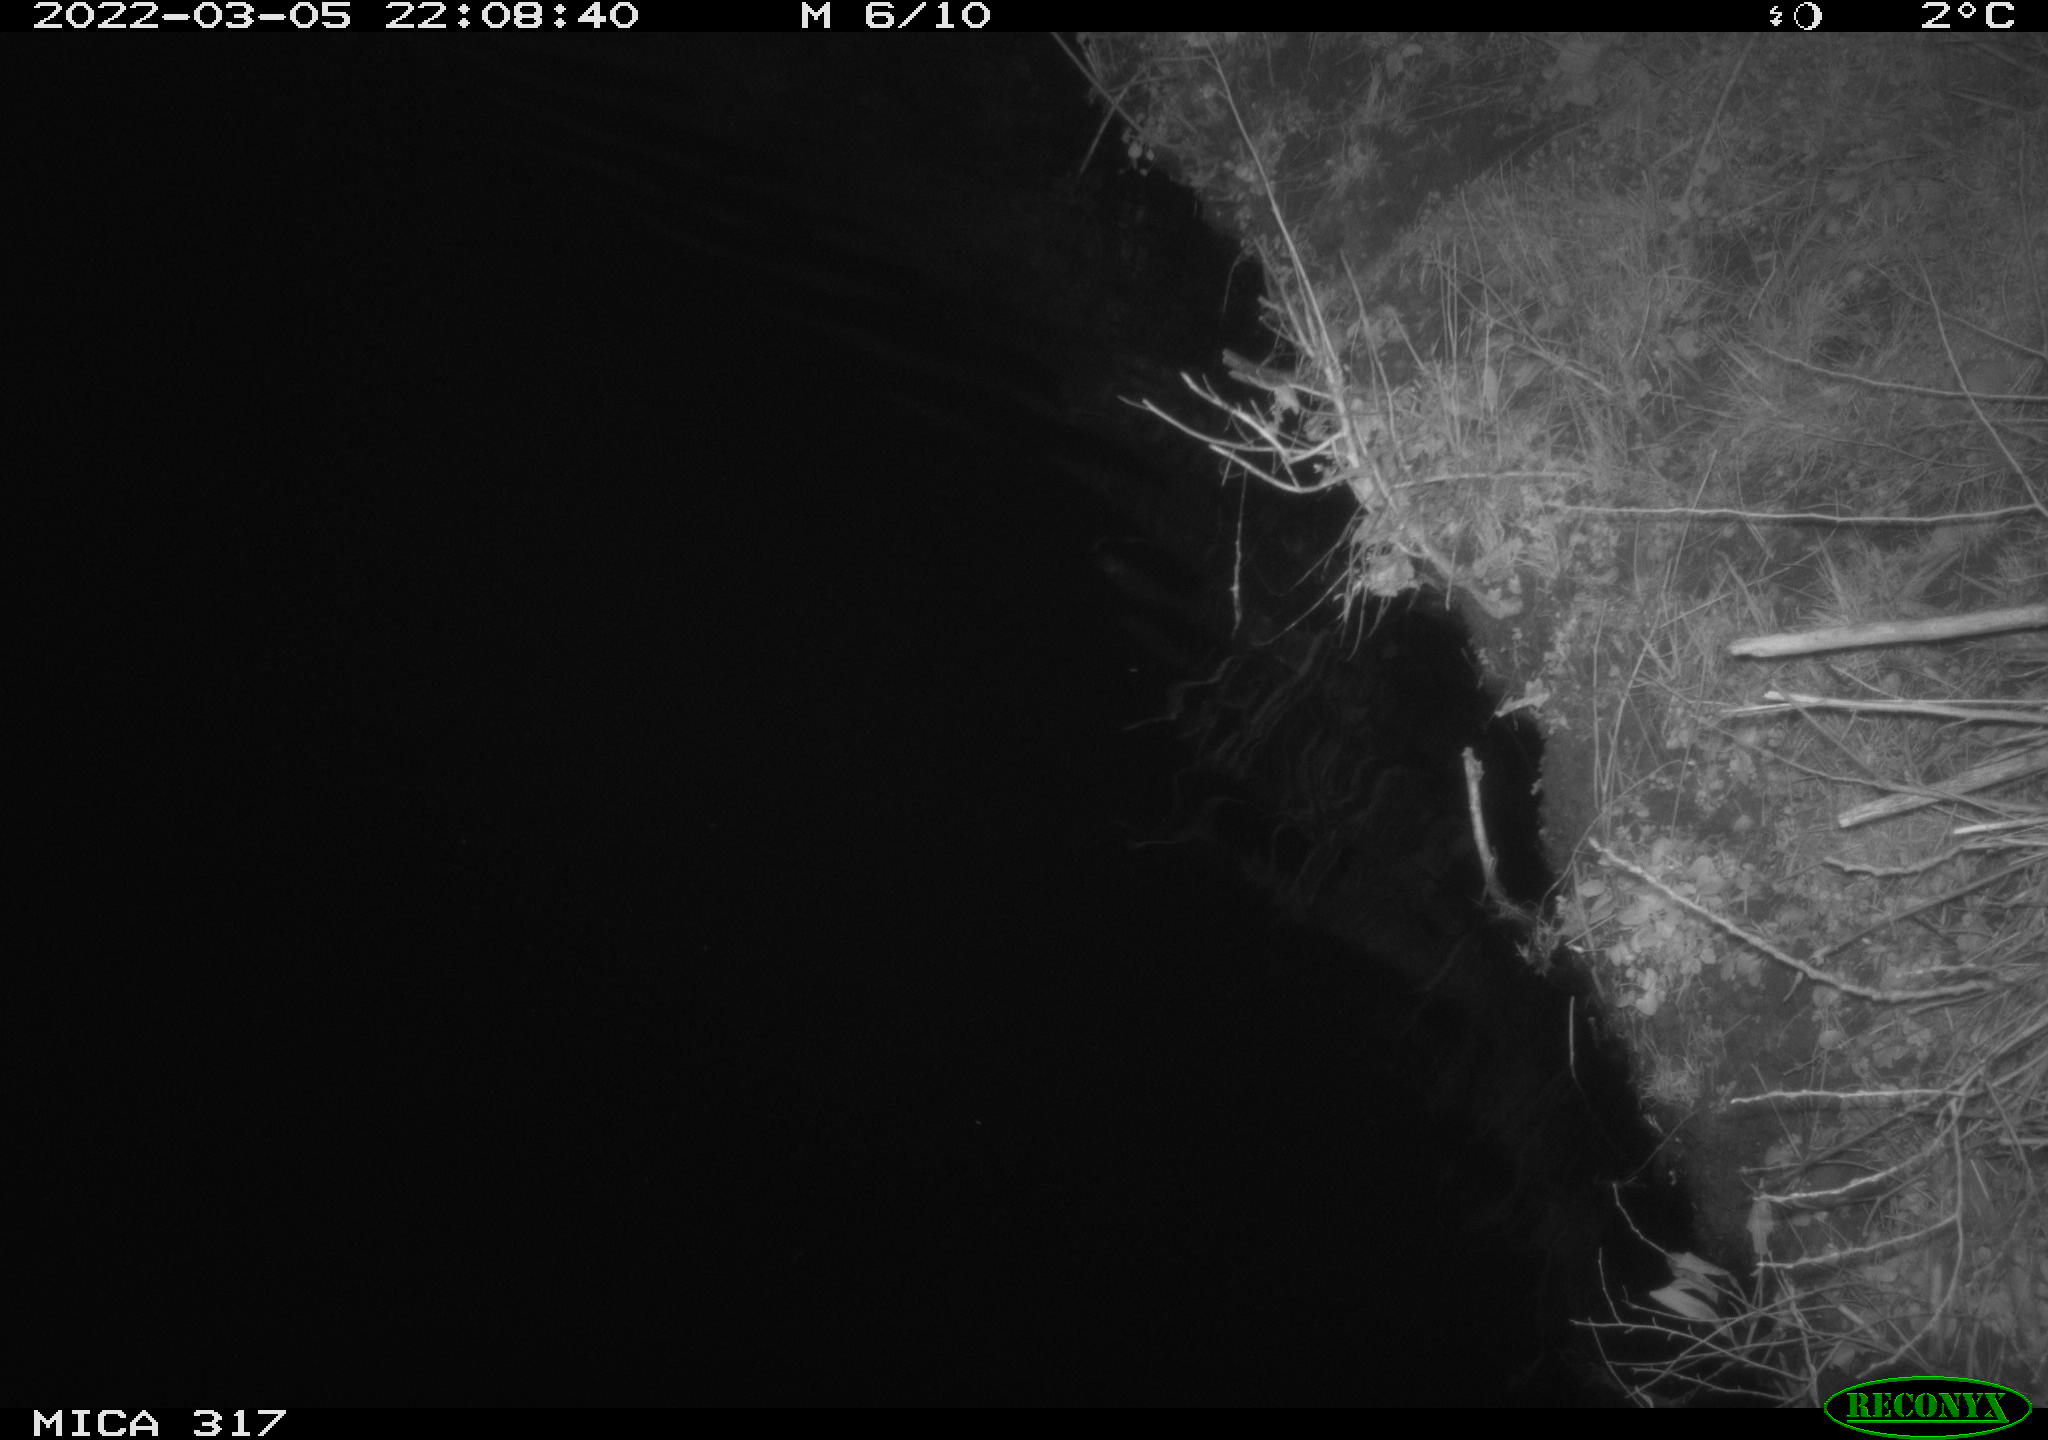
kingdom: Animalia
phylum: Chordata
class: Aves
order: Anseriformes
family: Anatidae
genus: Anas
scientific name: Anas platyrhynchos
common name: Mallard
